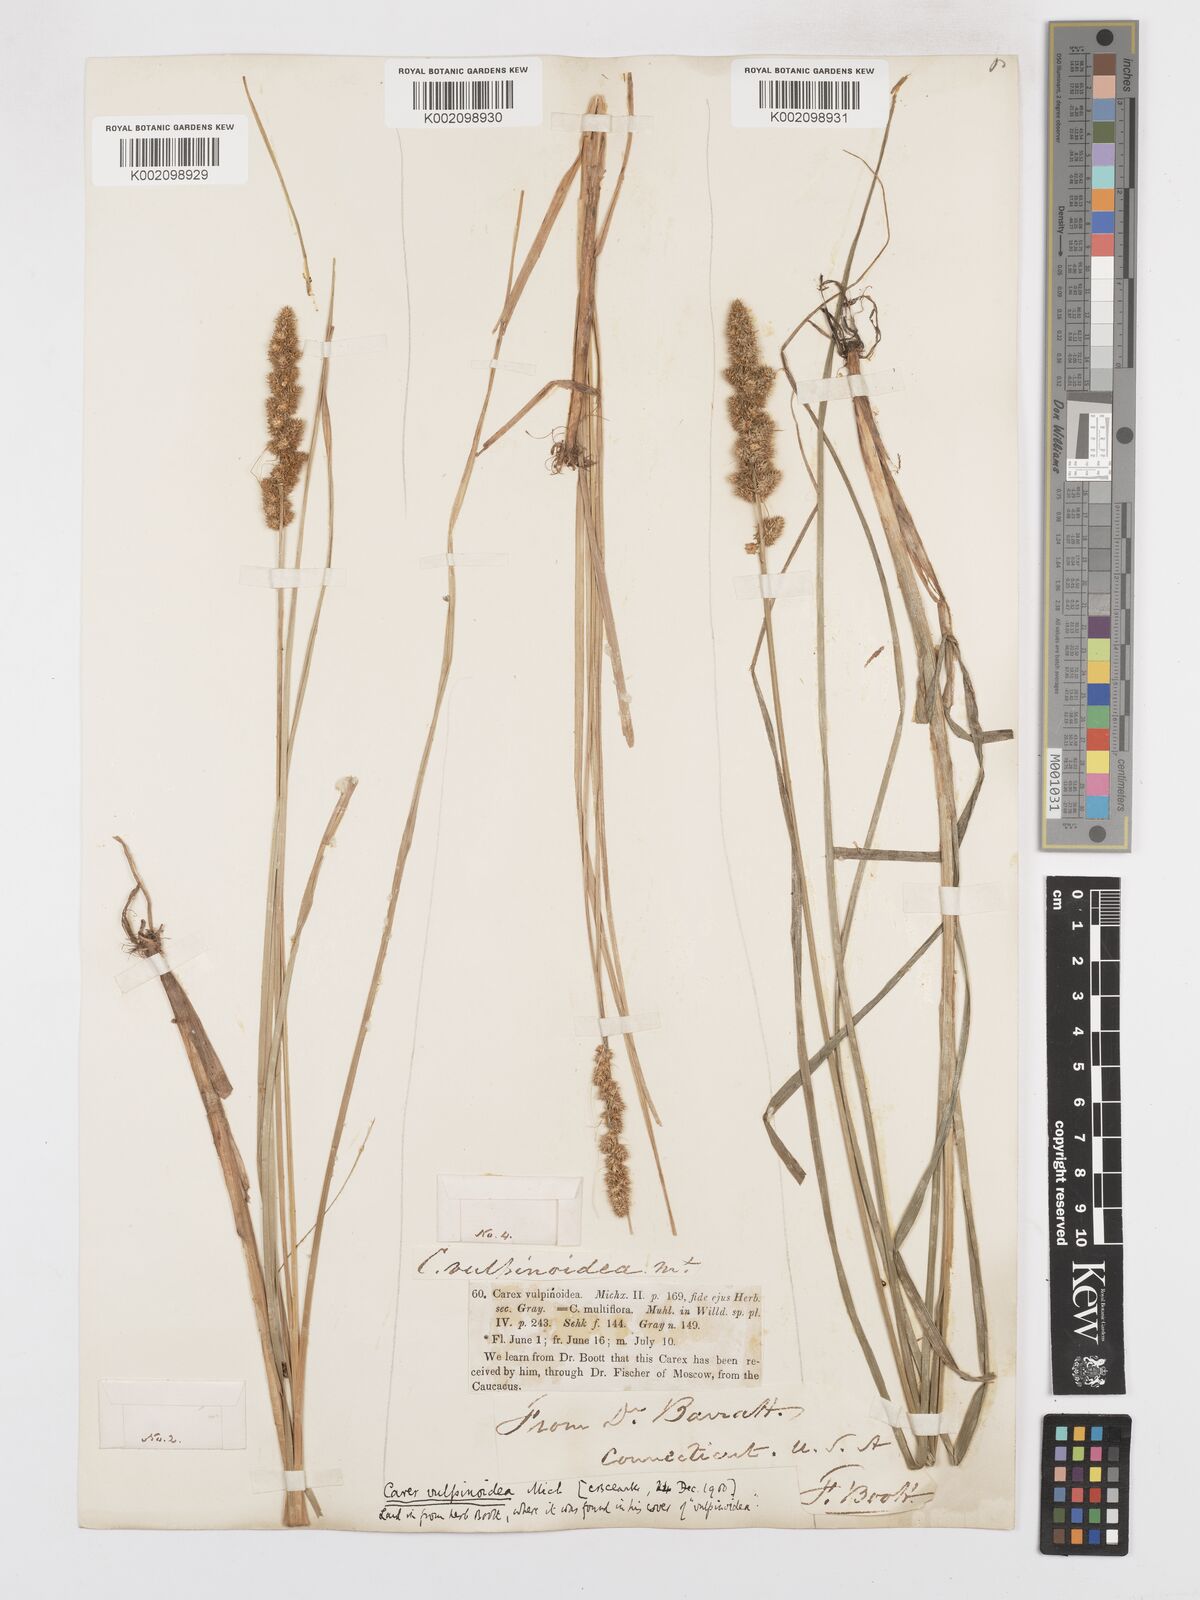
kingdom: Plantae
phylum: Tracheophyta
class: Liliopsida
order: Poales
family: Cyperaceae
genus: Carex
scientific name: Carex vulpinoidea
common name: American fox-sedge
